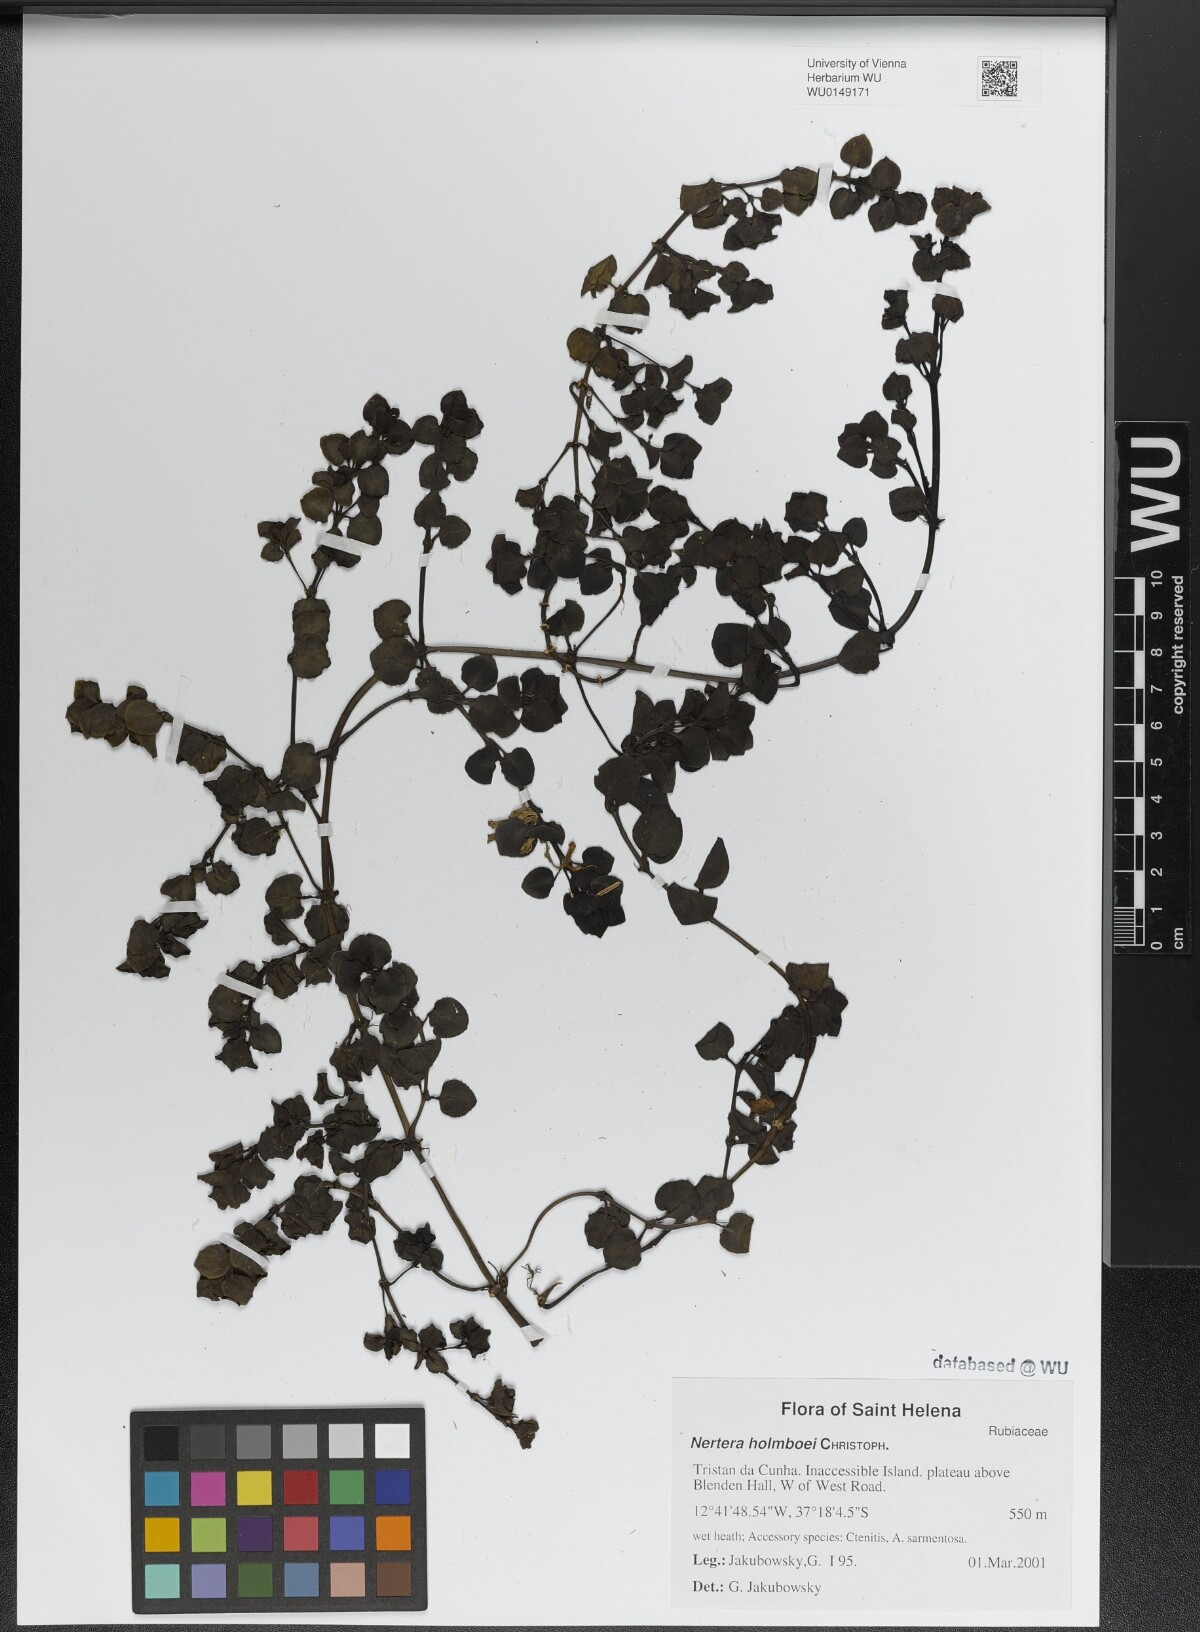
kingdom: Plantae
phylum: Tracheophyta
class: Magnoliopsida
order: Gentianales
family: Rubiaceae
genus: Nertera
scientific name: Nertera holmboei
